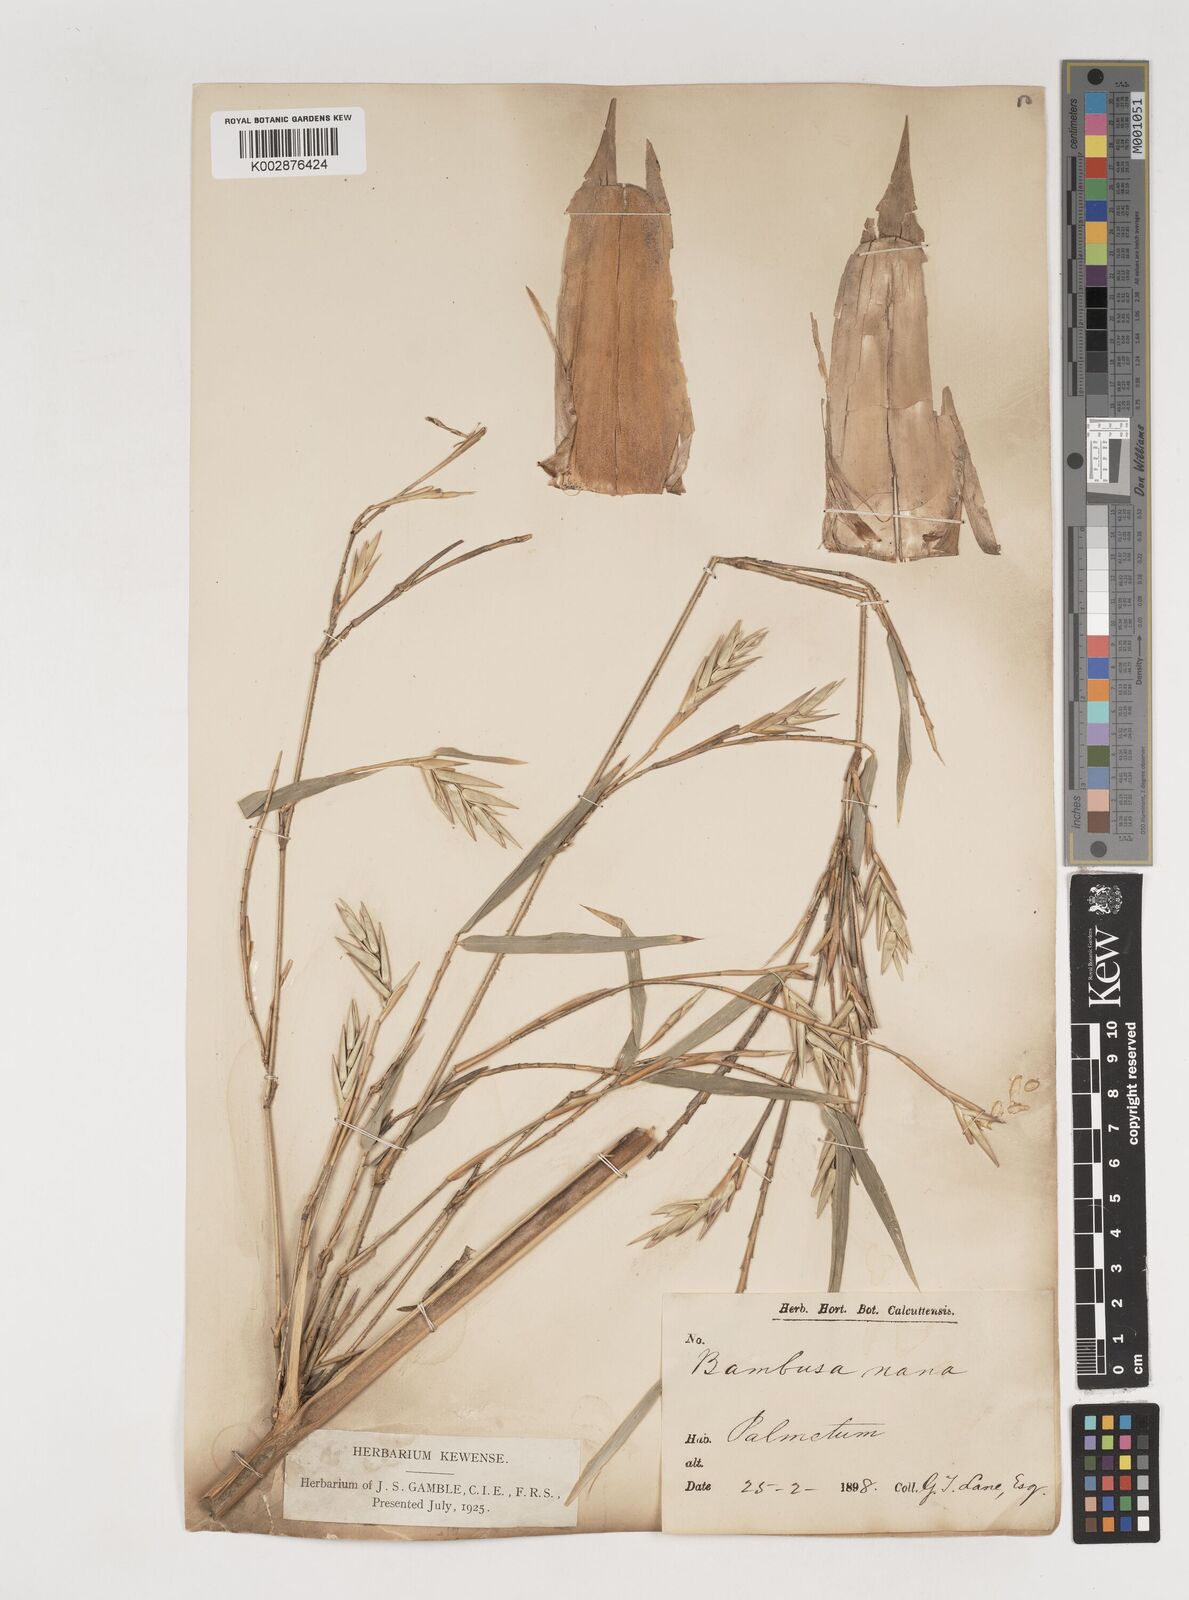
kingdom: Plantae
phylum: Tracheophyta
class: Liliopsida
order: Poales
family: Poaceae
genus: Bambusa
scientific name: Bambusa multiplex
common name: Hedge bamboo
